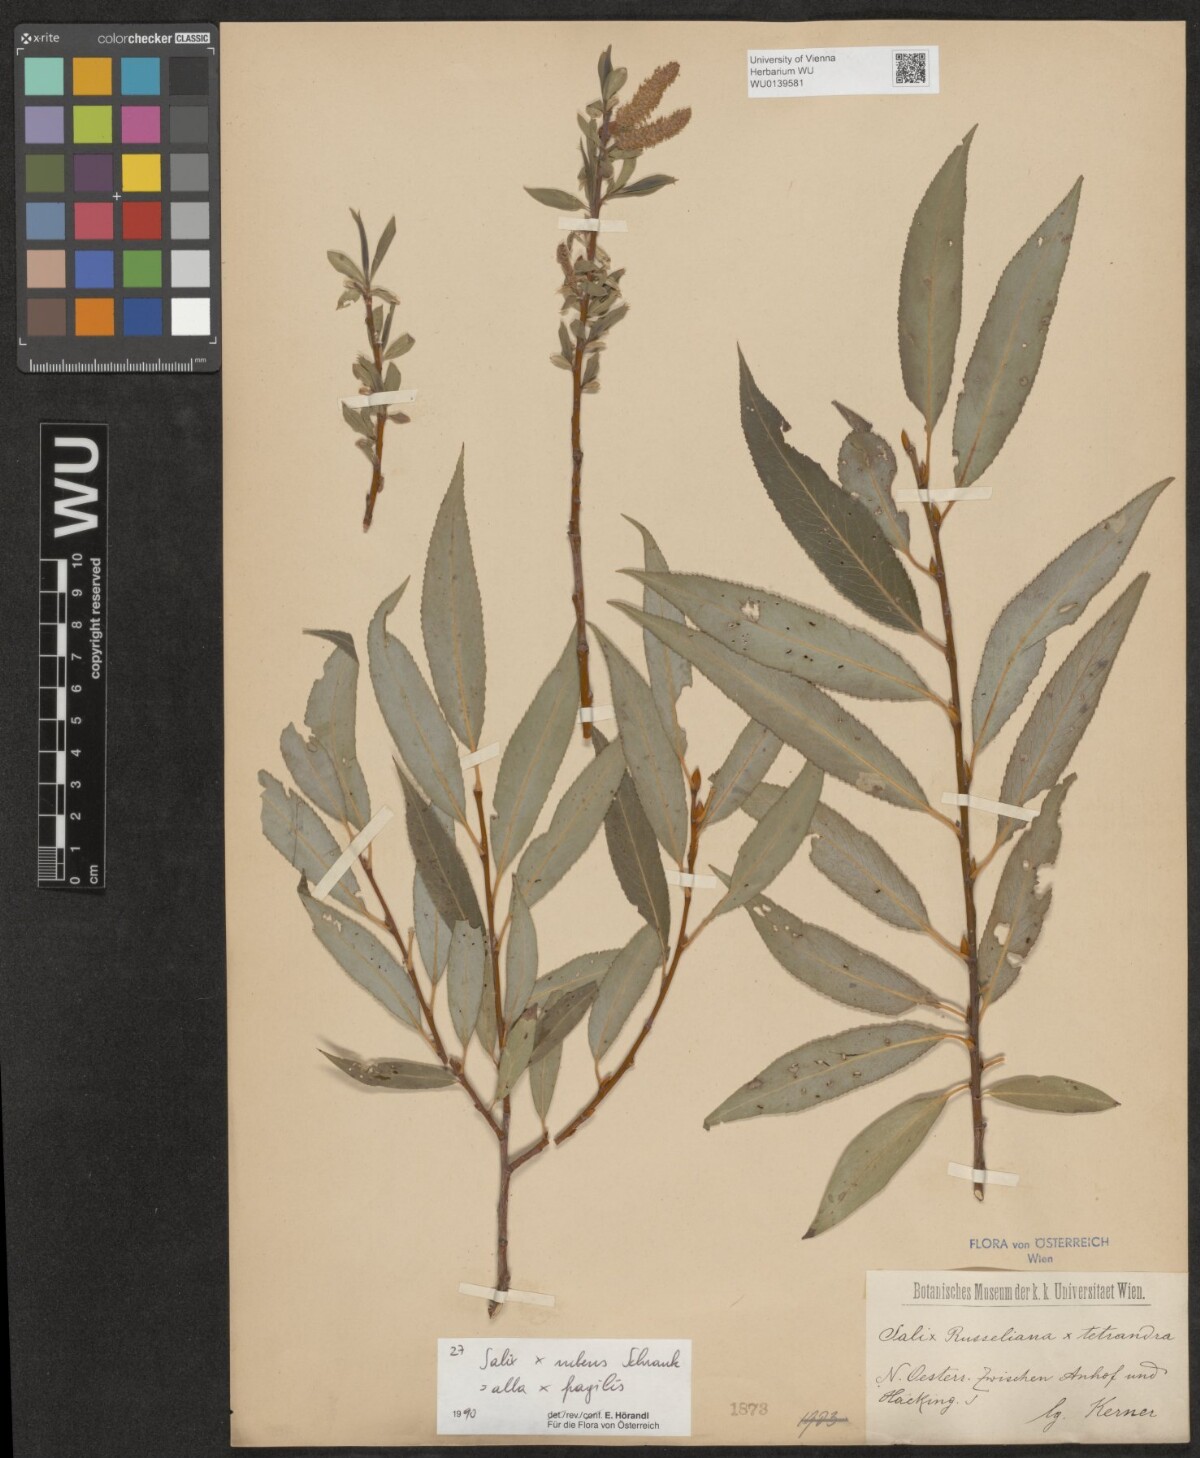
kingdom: Plantae
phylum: Tracheophyta
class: Magnoliopsida
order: Malpighiales
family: Salicaceae
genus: Salix
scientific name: Salix rubens
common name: Hybrid crack willow
